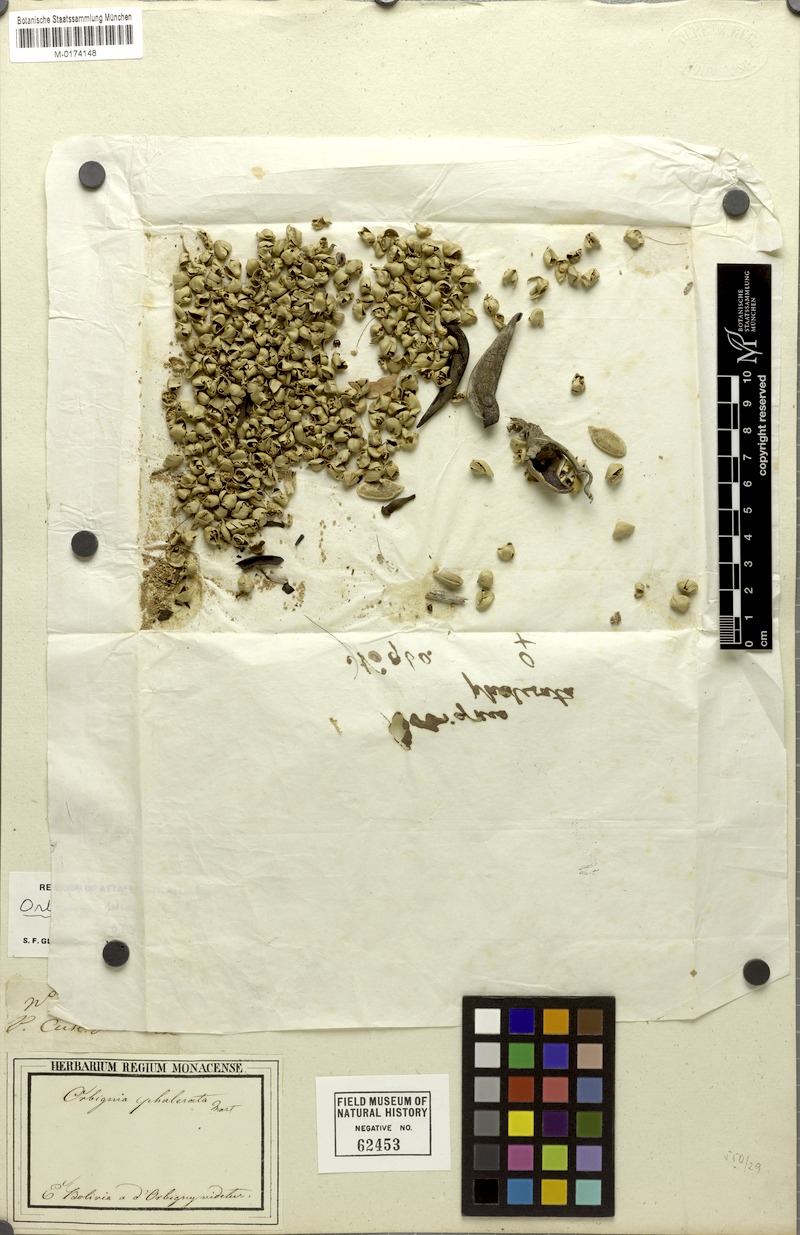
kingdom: Plantae
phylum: Tracheophyta
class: Liliopsida
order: Arecales
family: Arecaceae
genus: Attalea
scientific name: Attalea speciosa
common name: Babassu palm
